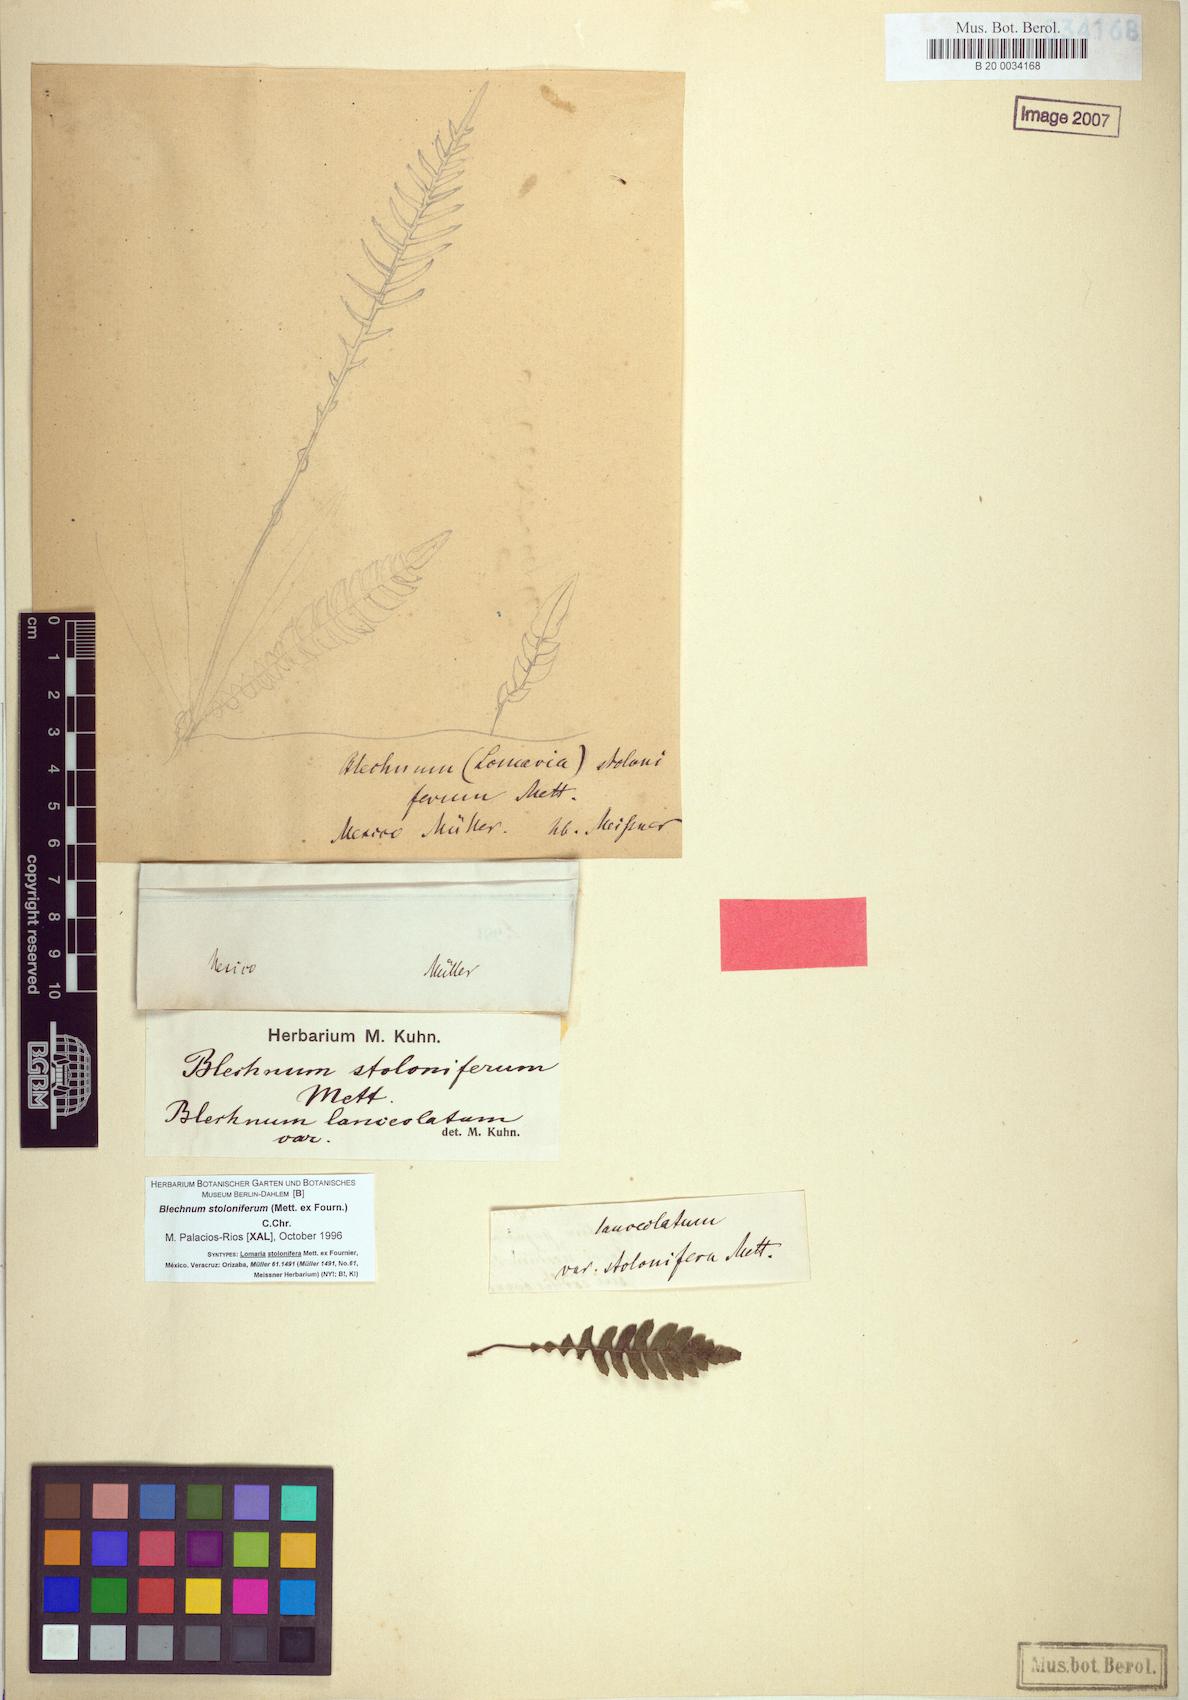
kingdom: Plantae
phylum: Tracheophyta
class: Polypodiopsida
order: Polypodiales
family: Blechnaceae
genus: Austroblechnum
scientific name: Austroblechnum stoloniferum
